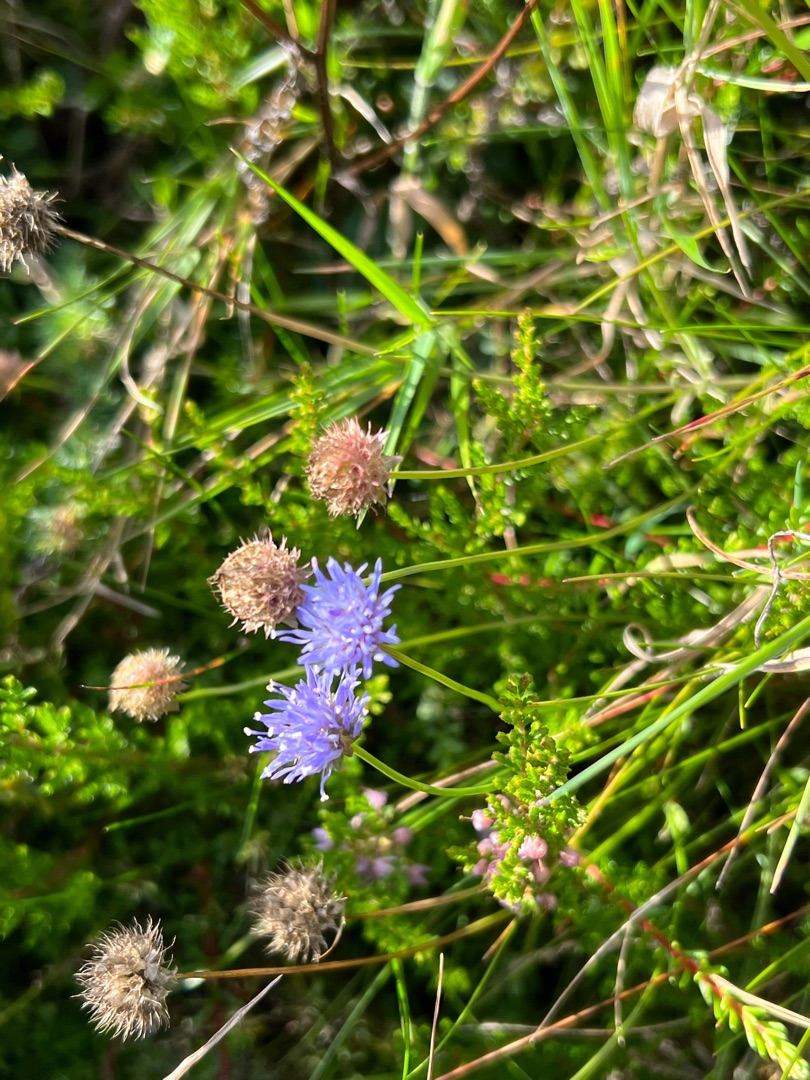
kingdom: Plantae
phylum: Tracheophyta
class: Magnoliopsida
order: Asterales
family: Campanulaceae
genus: Jasione
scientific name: Jasione montana
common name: Blåmunke
